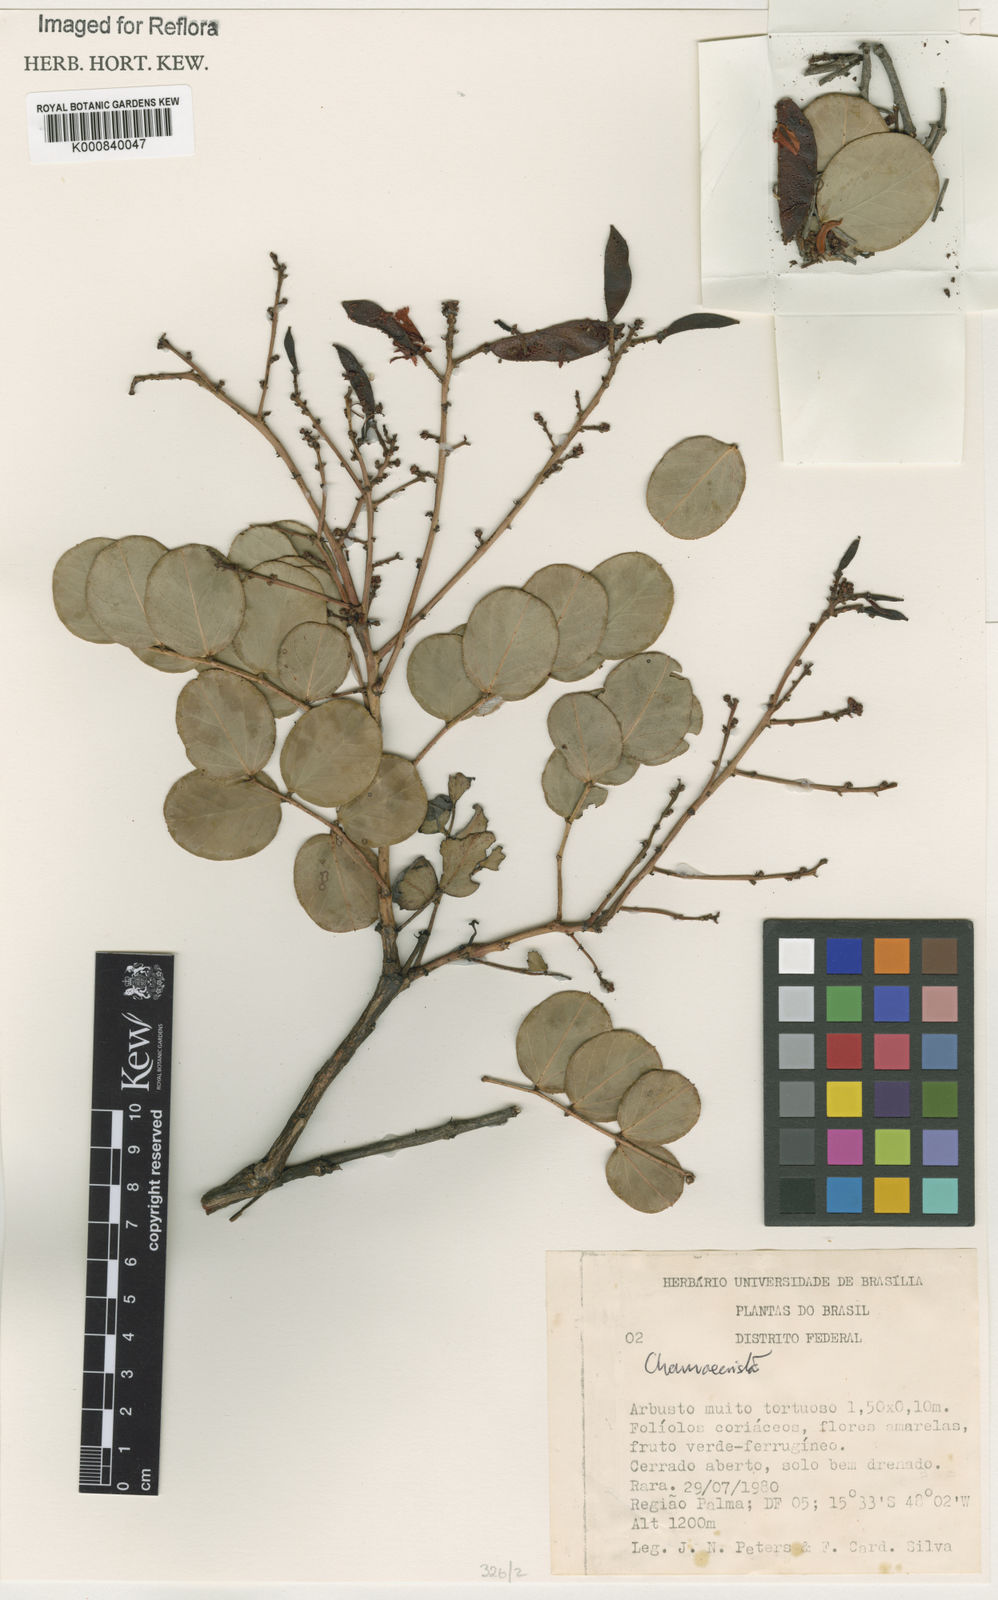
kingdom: Plantae
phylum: Tracheophyta
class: Magnoliopsida
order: Fabales
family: Fabaceae
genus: Chamaecrista
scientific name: Chamaecrista pachyclada
